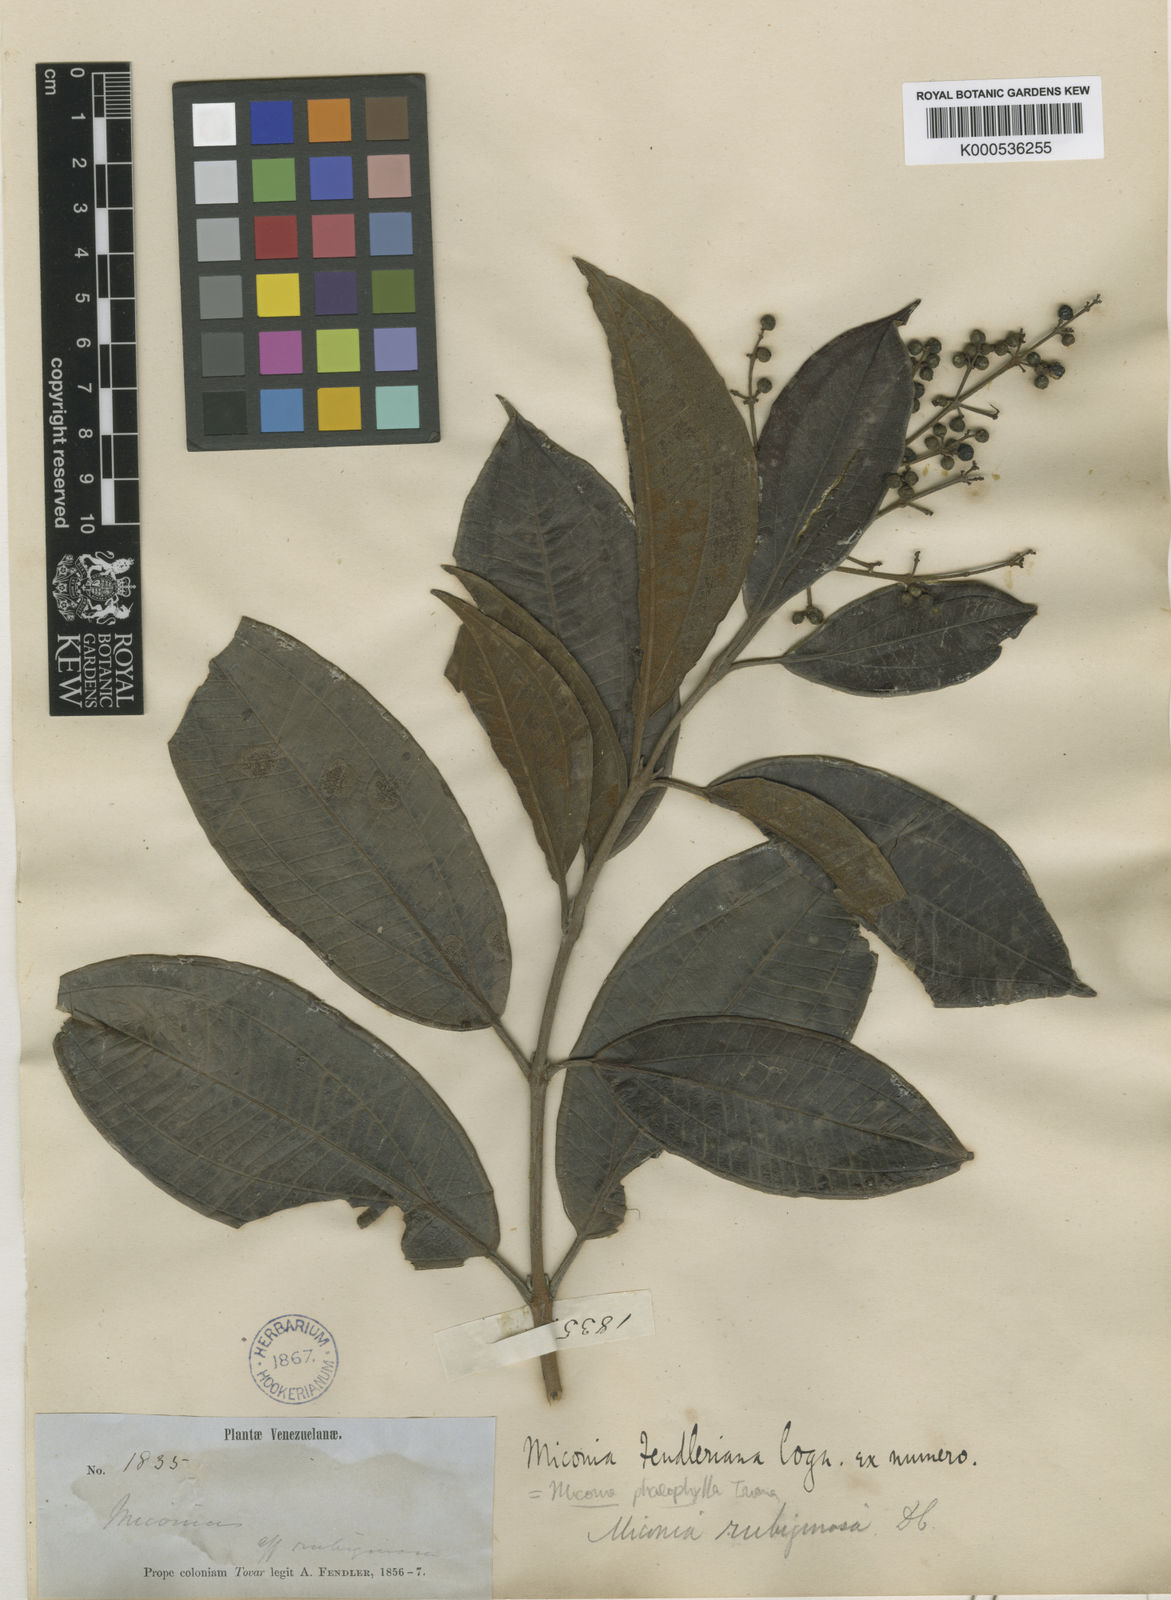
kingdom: Plantae
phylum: Tracheophyta
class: Magnoliopsida
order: Myrtales
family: Melastomataceae
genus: Miconia
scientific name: Miconia phaeophylla
